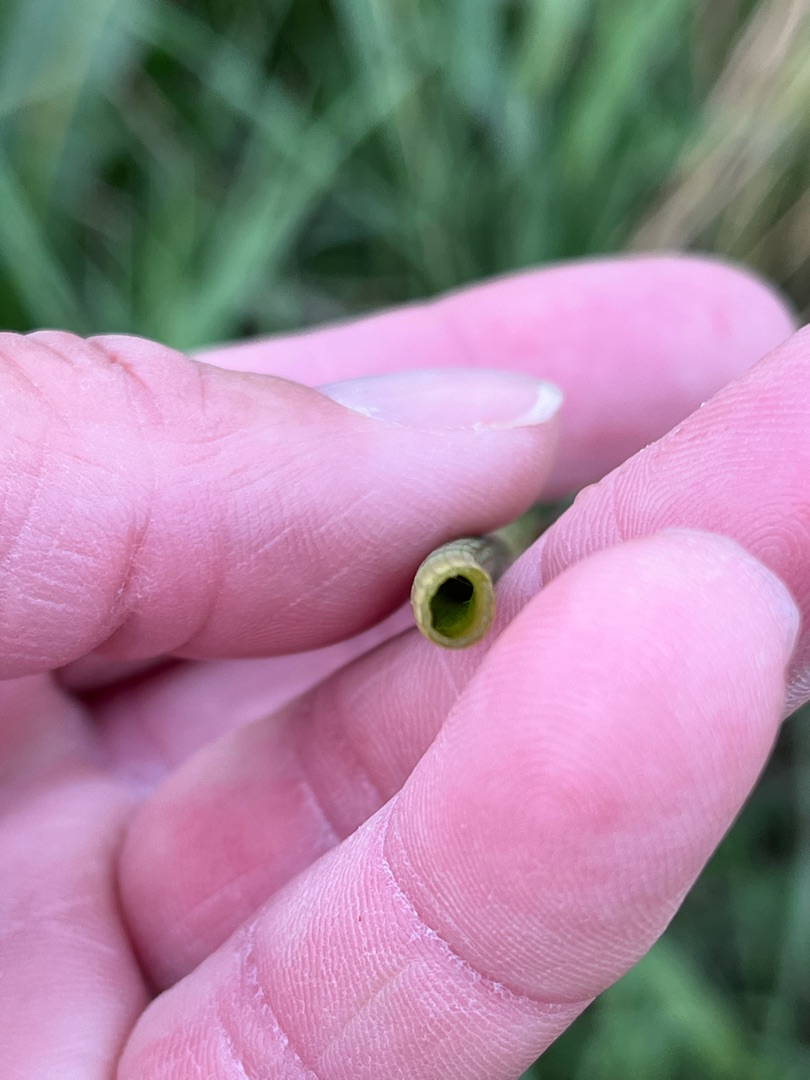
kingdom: Plantae
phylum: Tracheophyta
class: Polypodiopsida
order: Equisetales
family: Equisetaceae
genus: Equisetum
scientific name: Equisetum fluviatile
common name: Dynd-padderok
